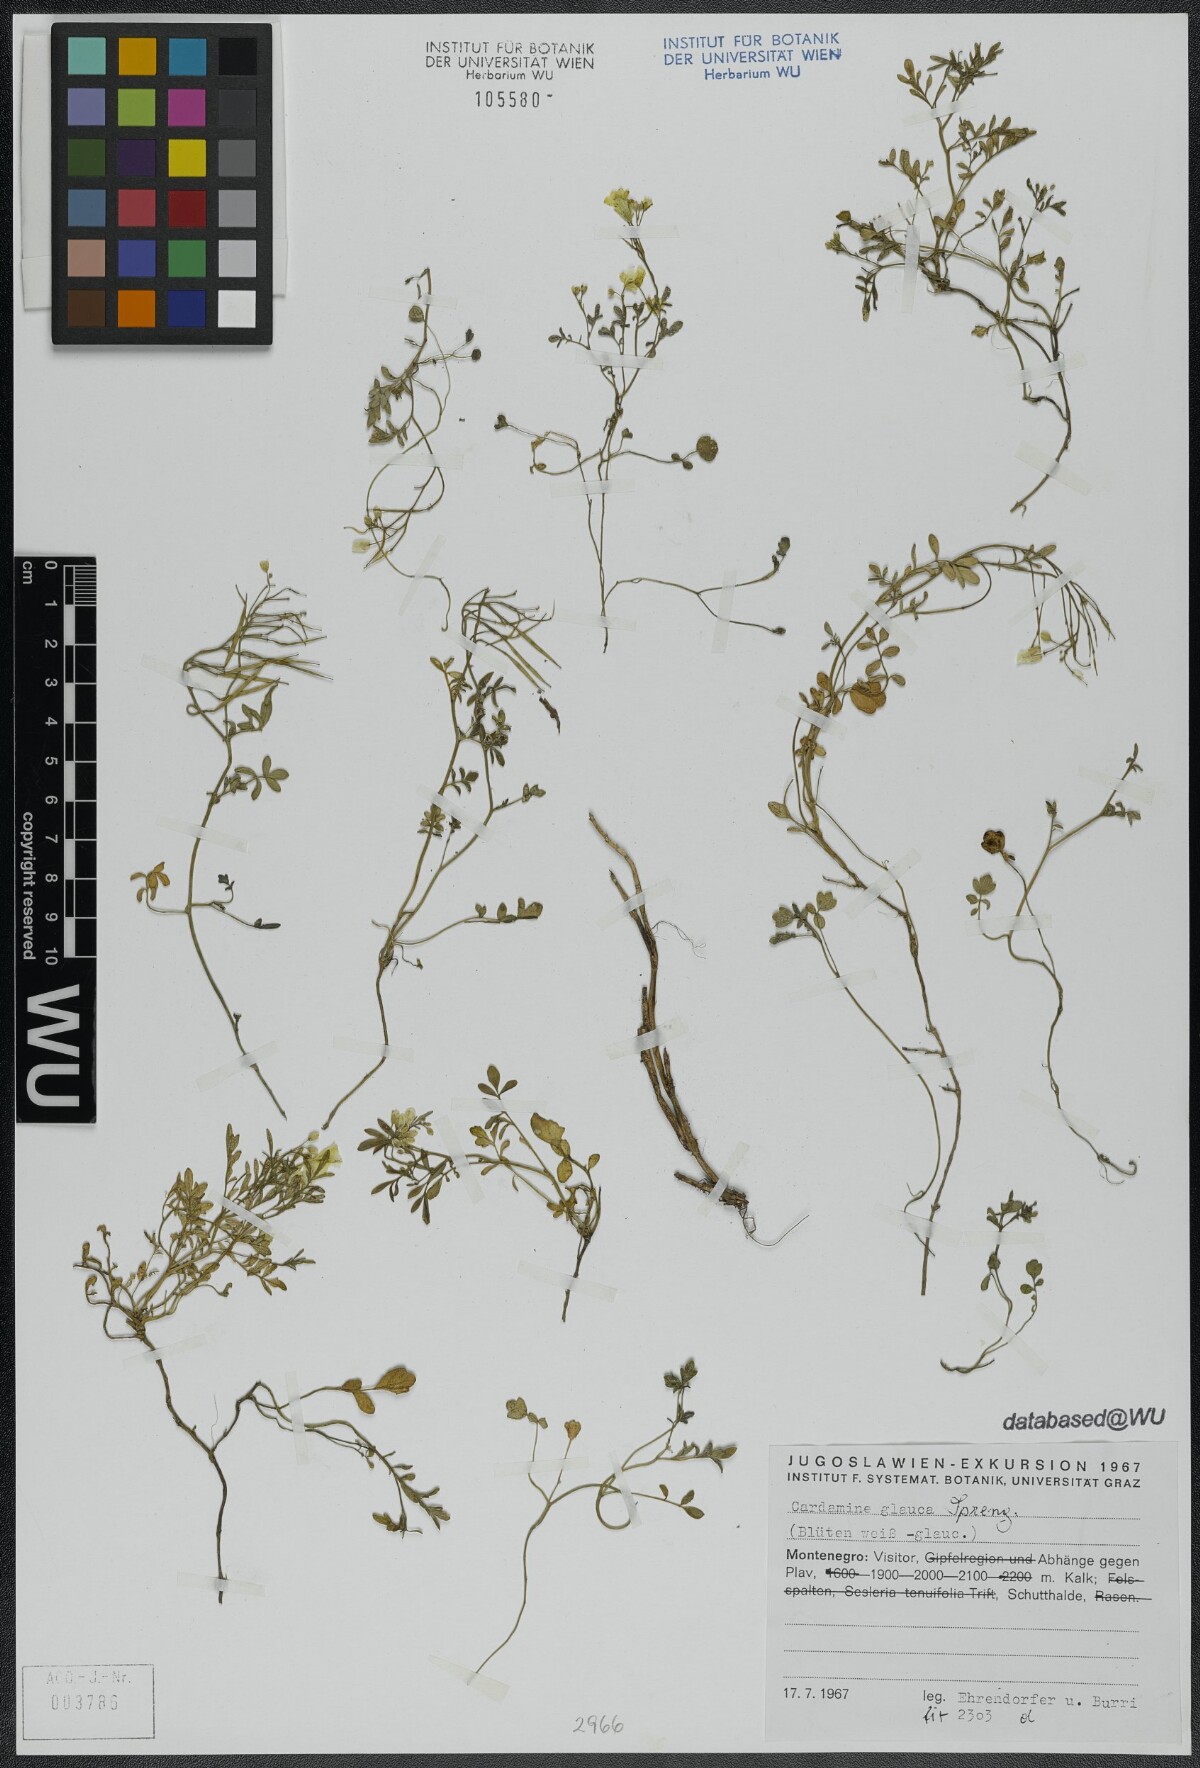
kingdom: Plantae
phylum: Tracheophyta
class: Magnoliopsida
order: Brassicales
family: Brassicaceae
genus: Cardamine
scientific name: Cardamine glauca
